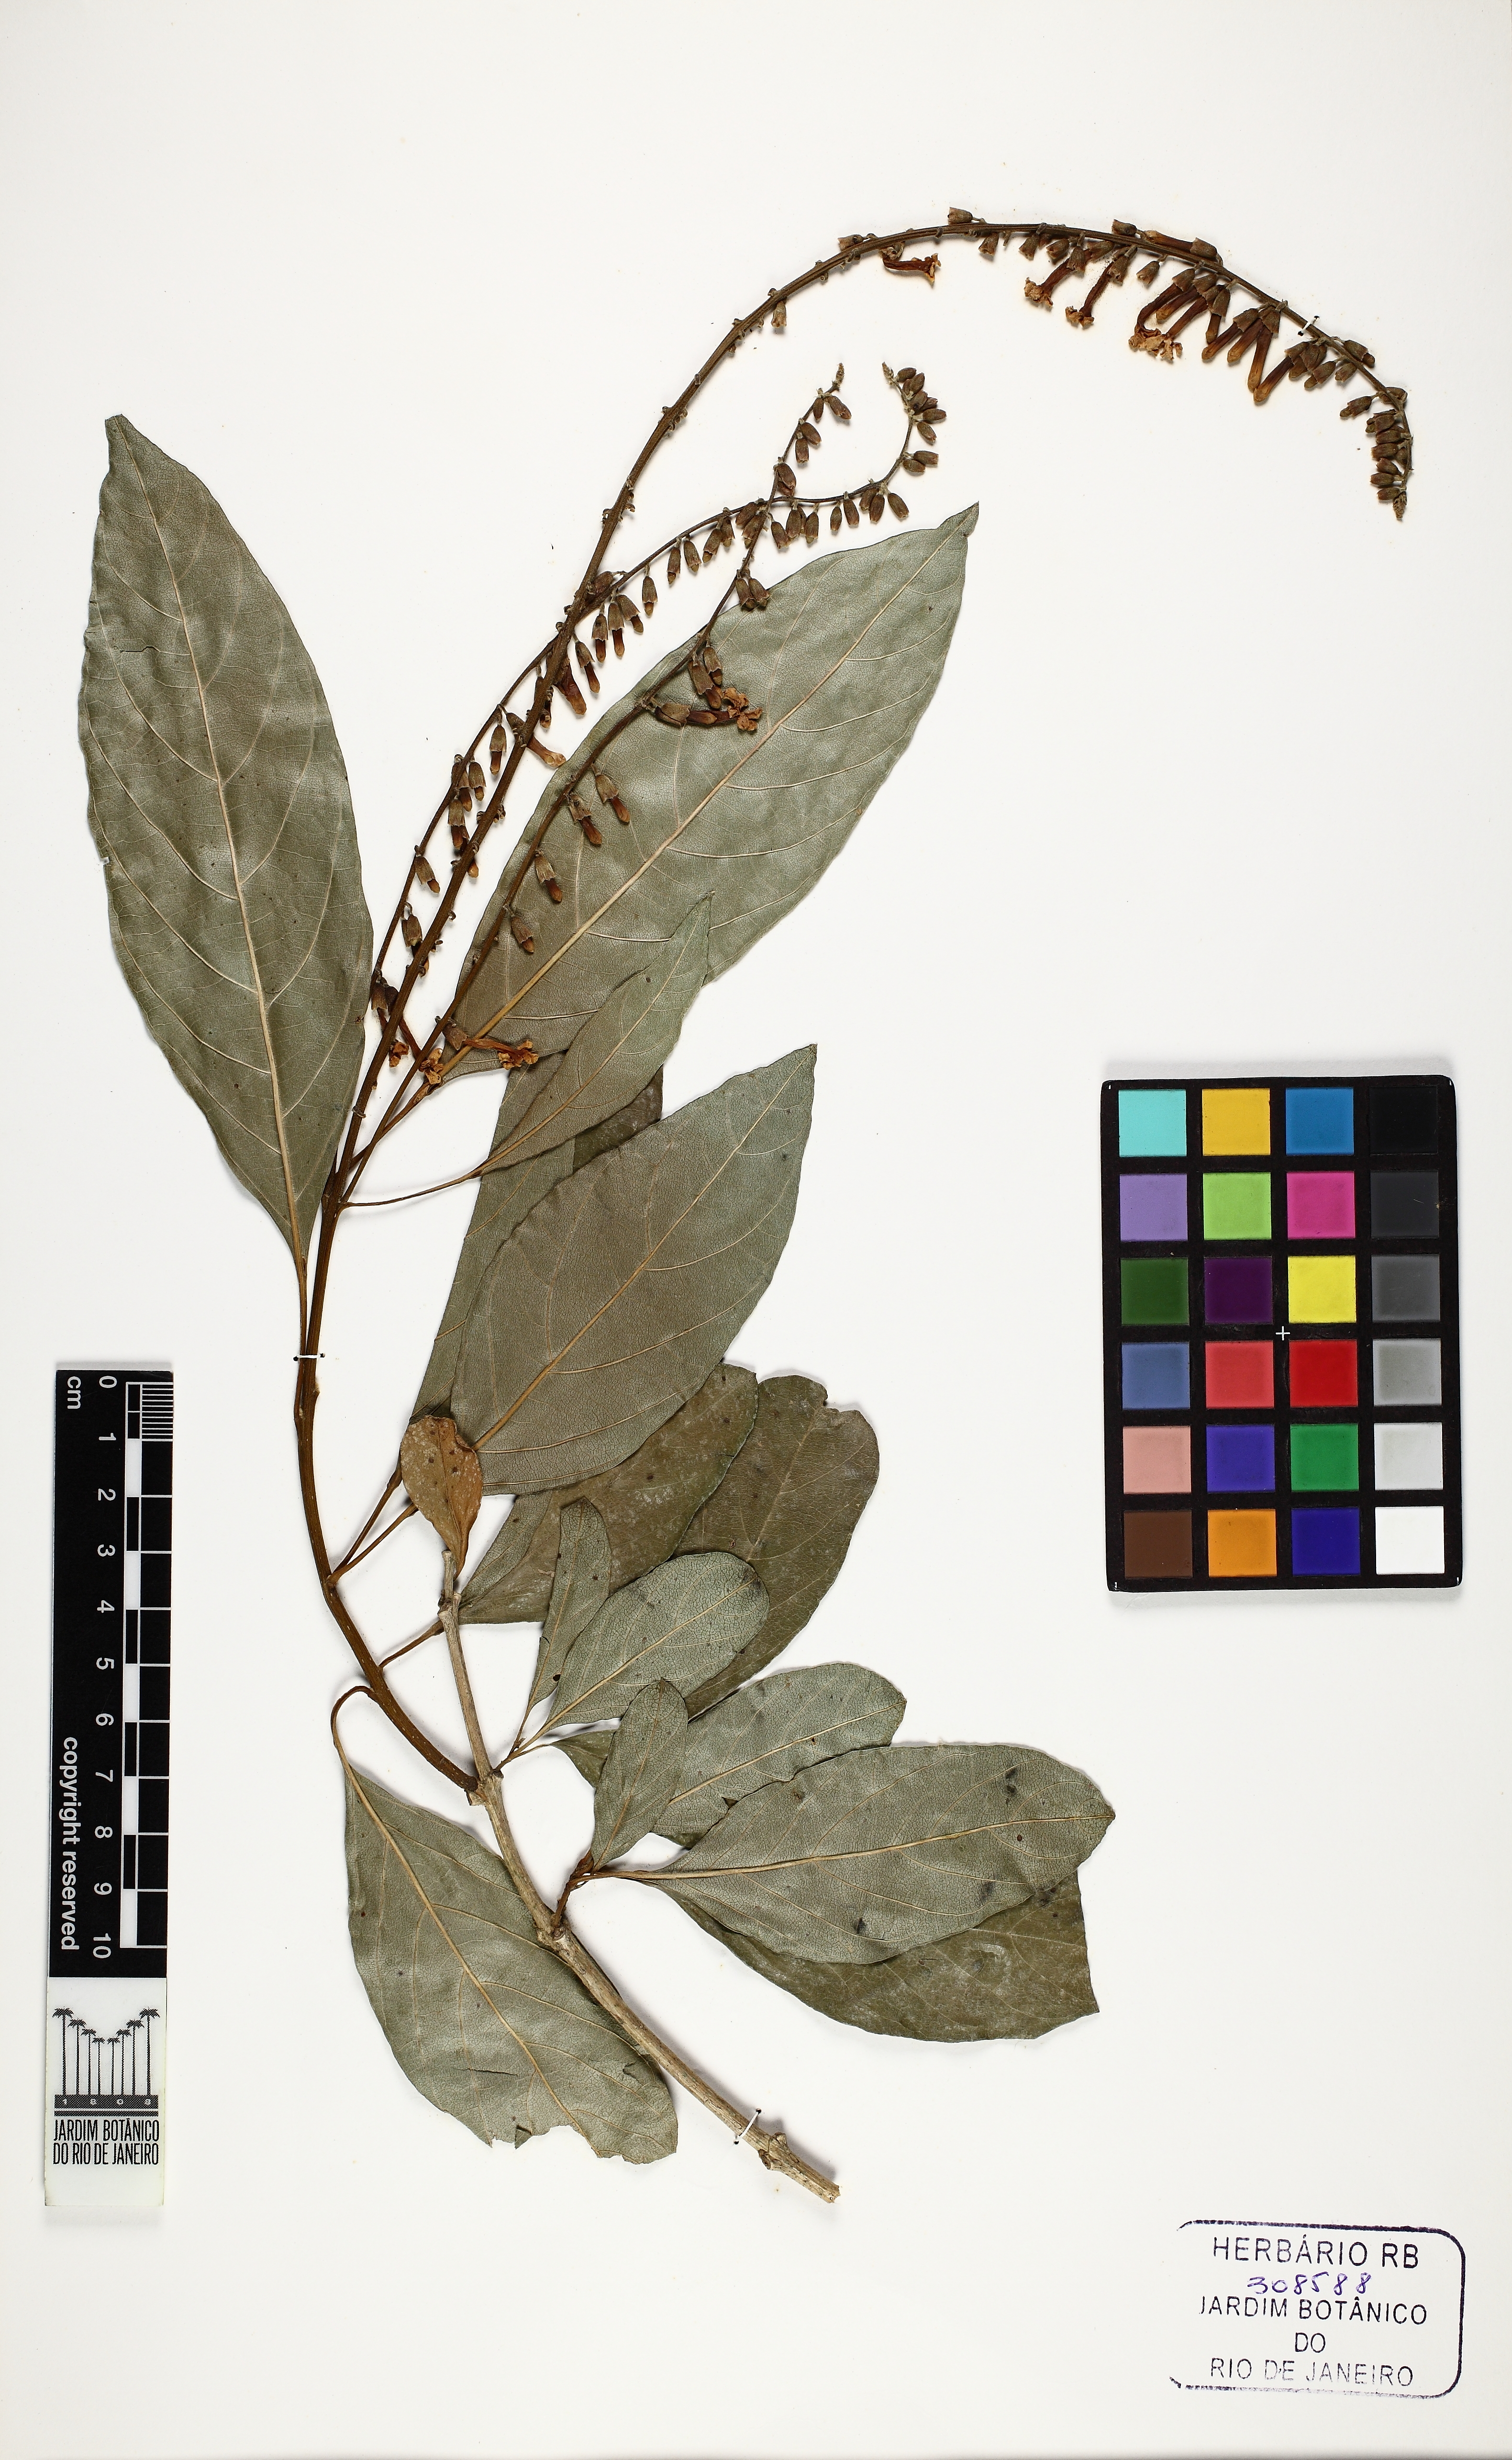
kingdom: Plantae
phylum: Tracheophyta
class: Magnoliopsida
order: Lamiales
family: Verbenaceae
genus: Citharexylum
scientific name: Citharexylum myrianthum
